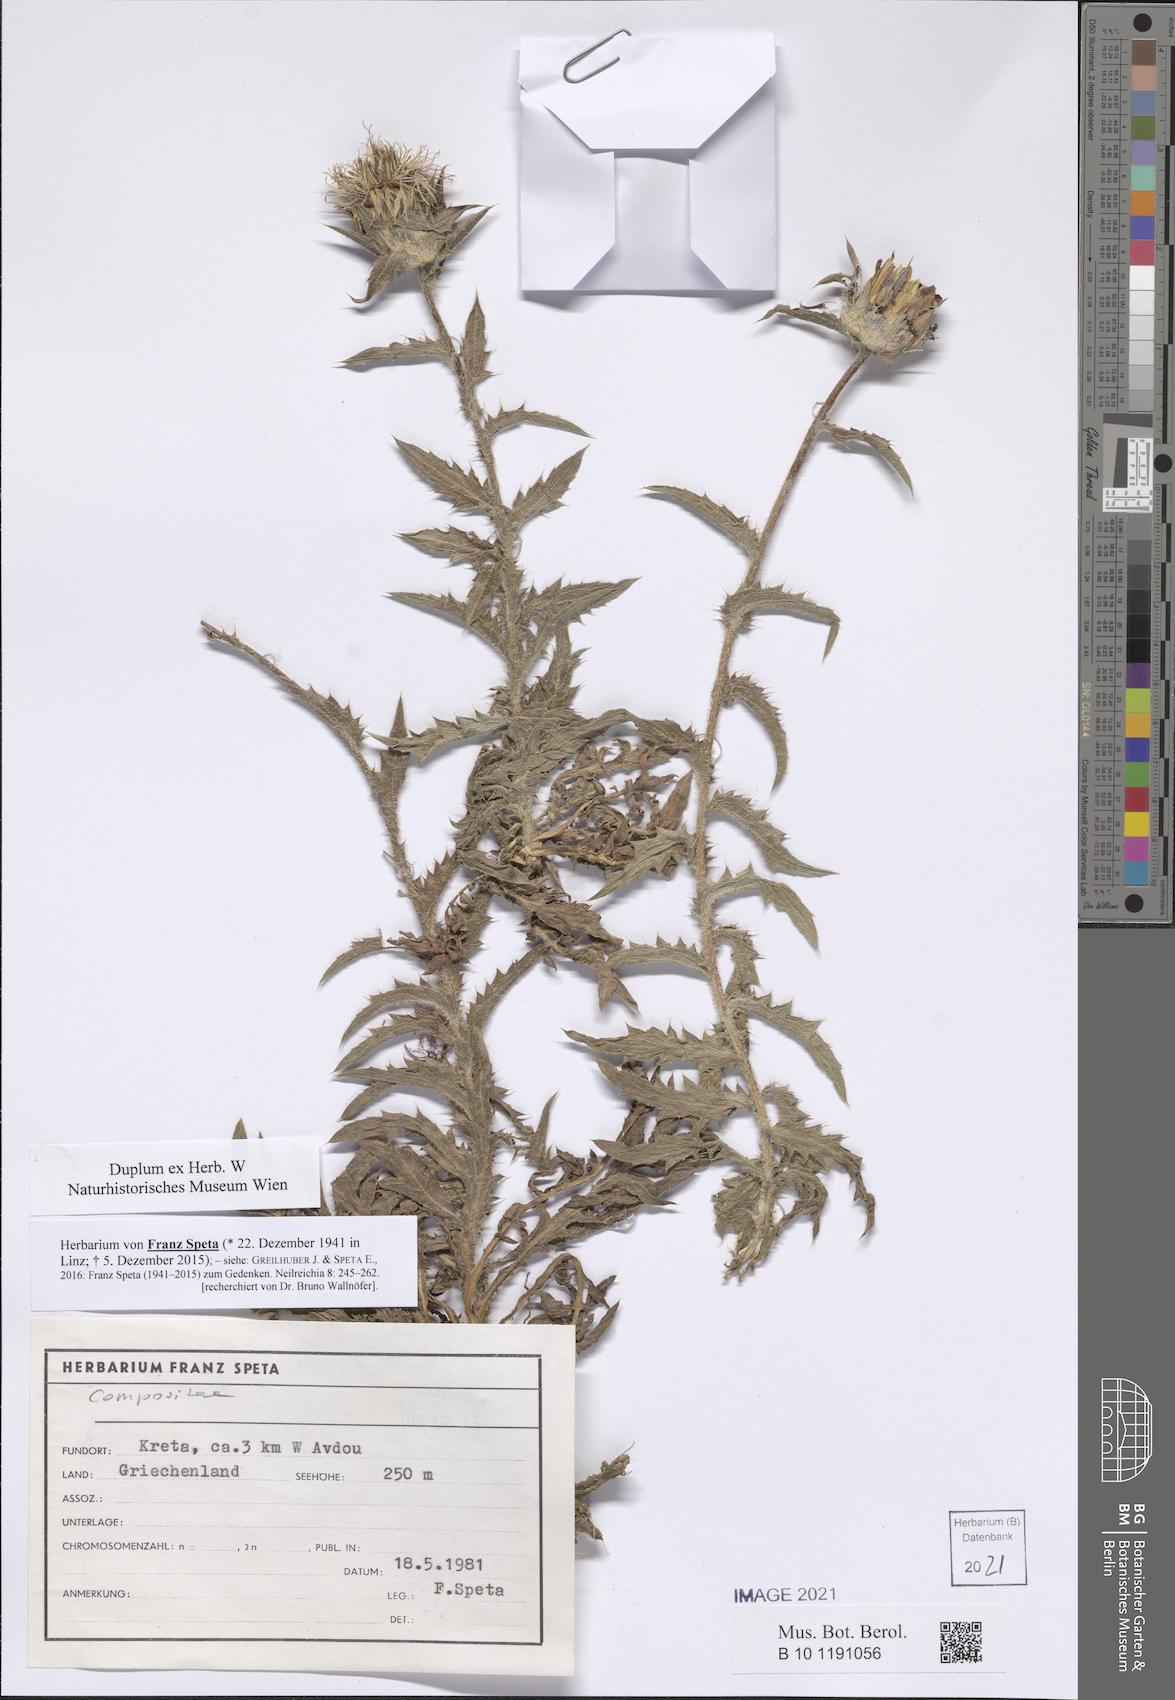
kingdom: Plantae
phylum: Tracheophyta
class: Magnoliopsida
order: Asterales
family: Asteraceae
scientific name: Asteraceae
